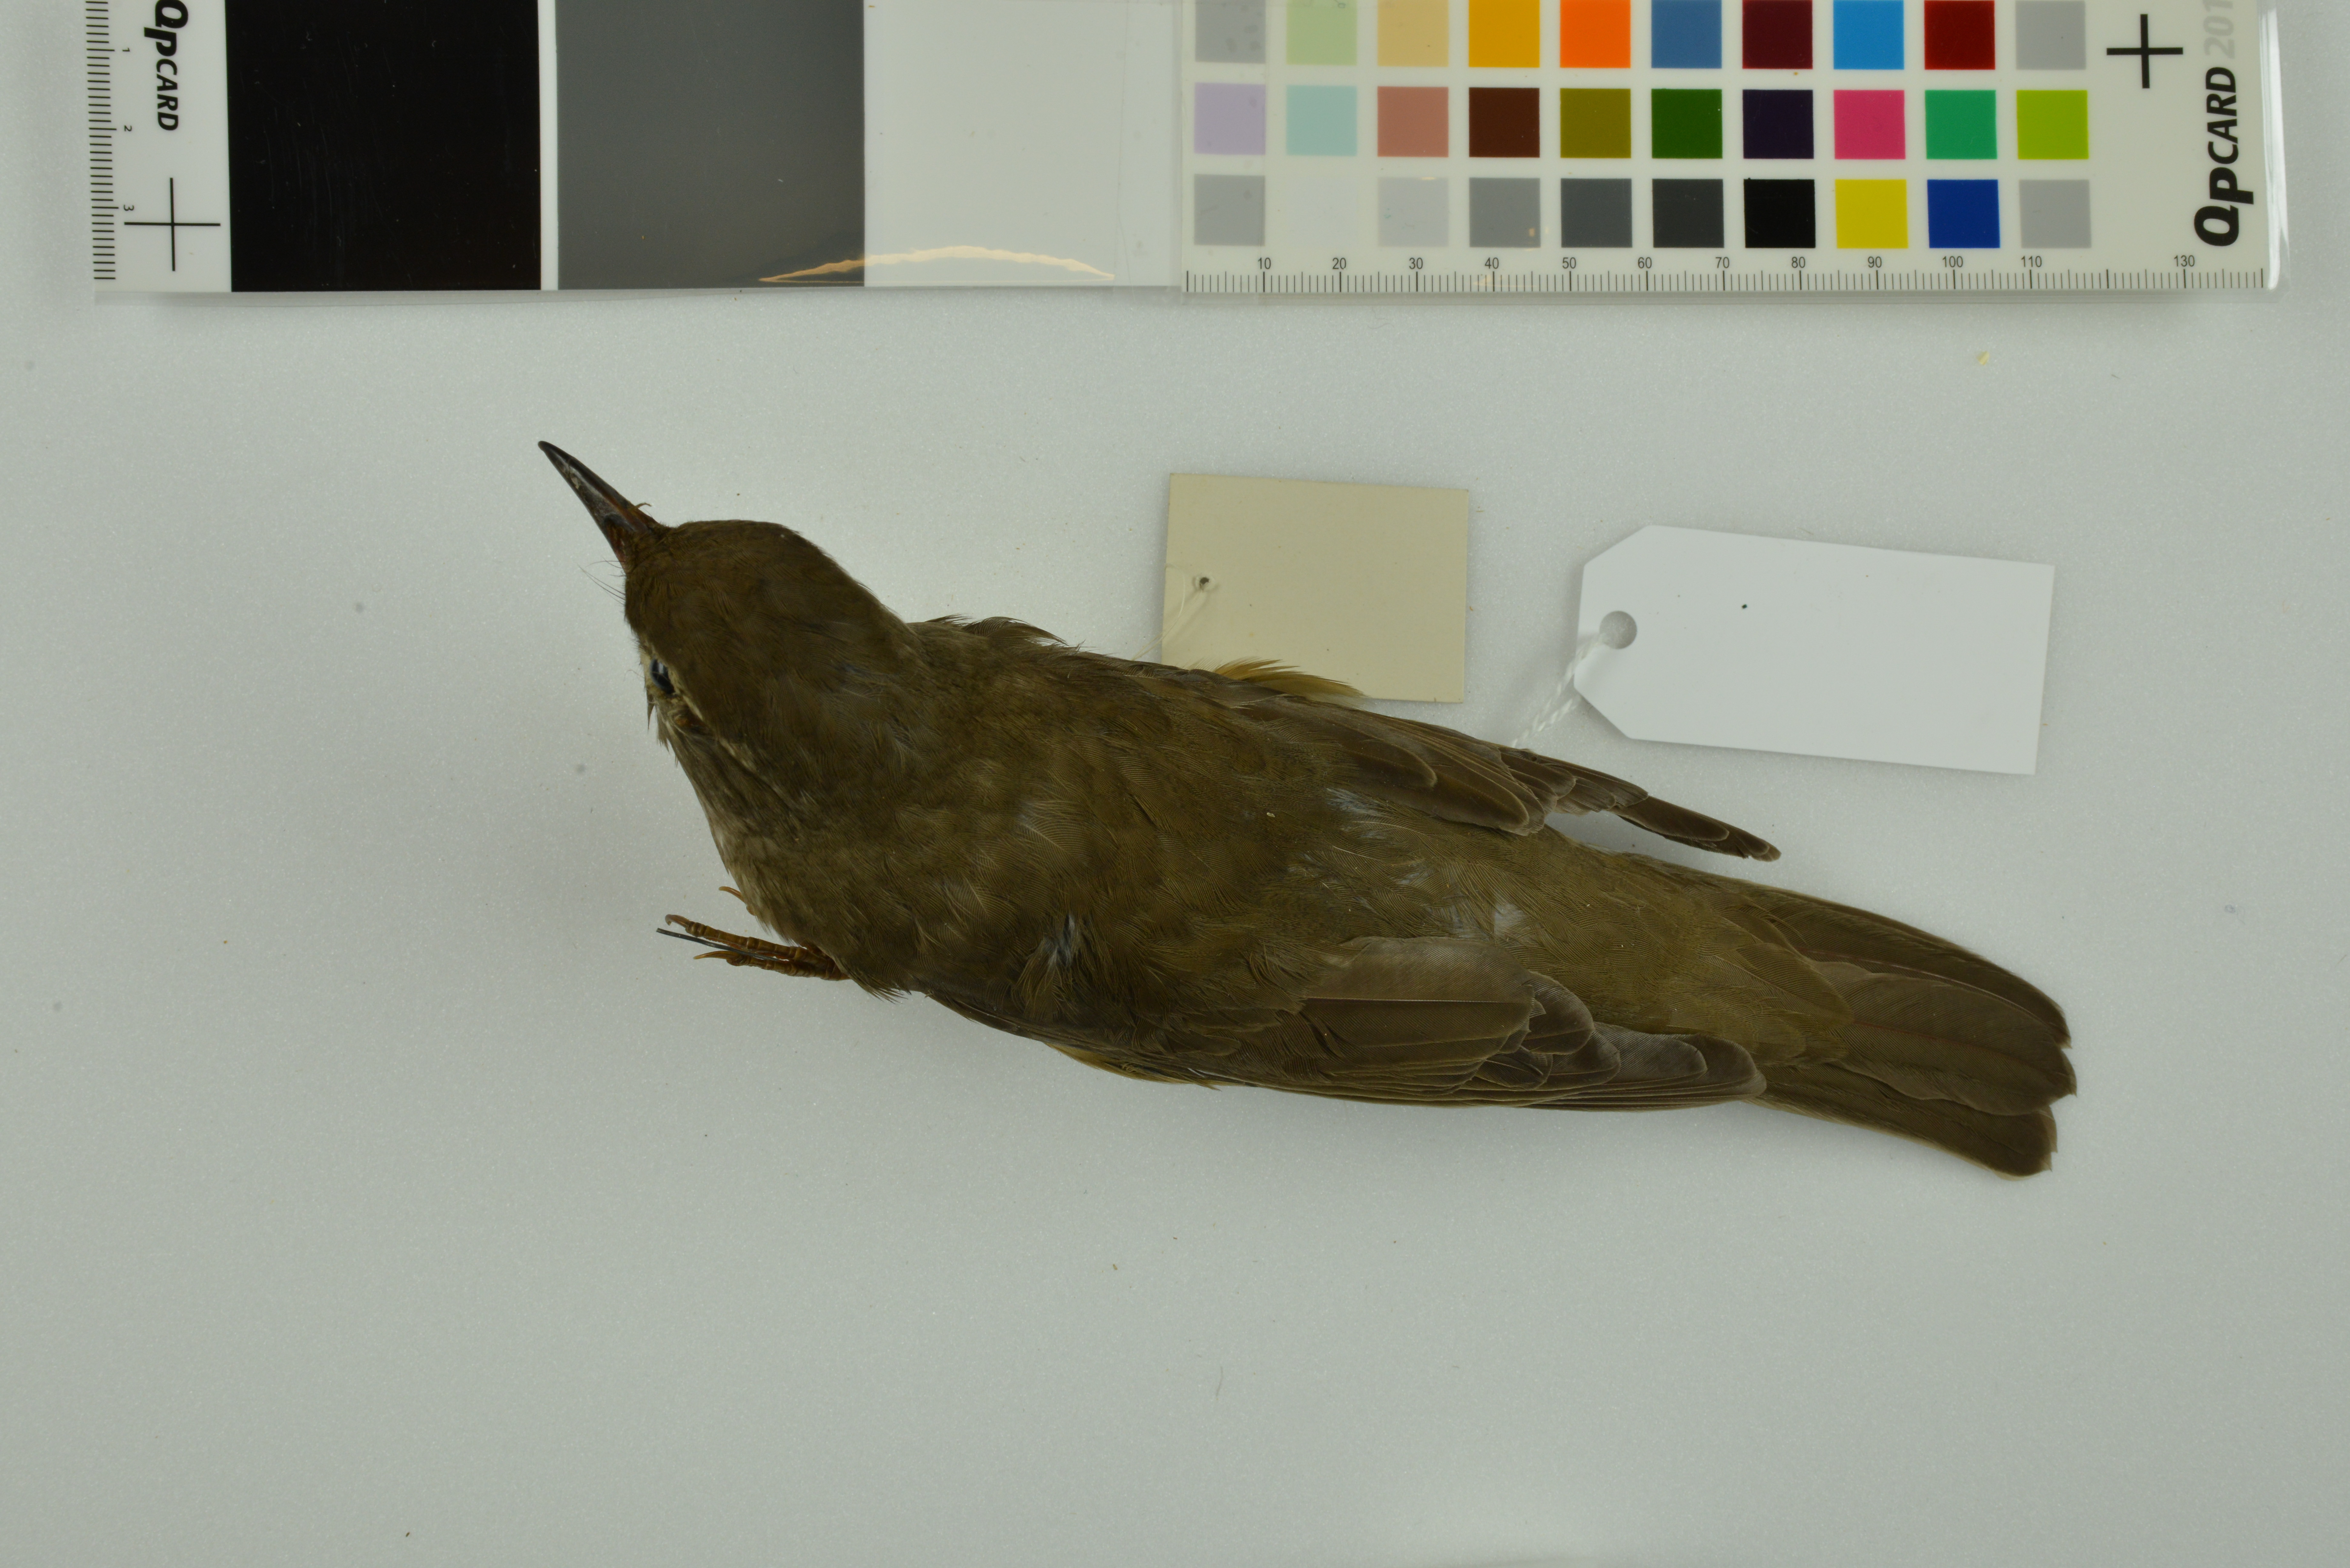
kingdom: Animalia
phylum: Chordata
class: Aves
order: Passeriformes
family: Turdidae
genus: Turdus
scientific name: Turdus obscurus
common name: Eyebrowed thrush
